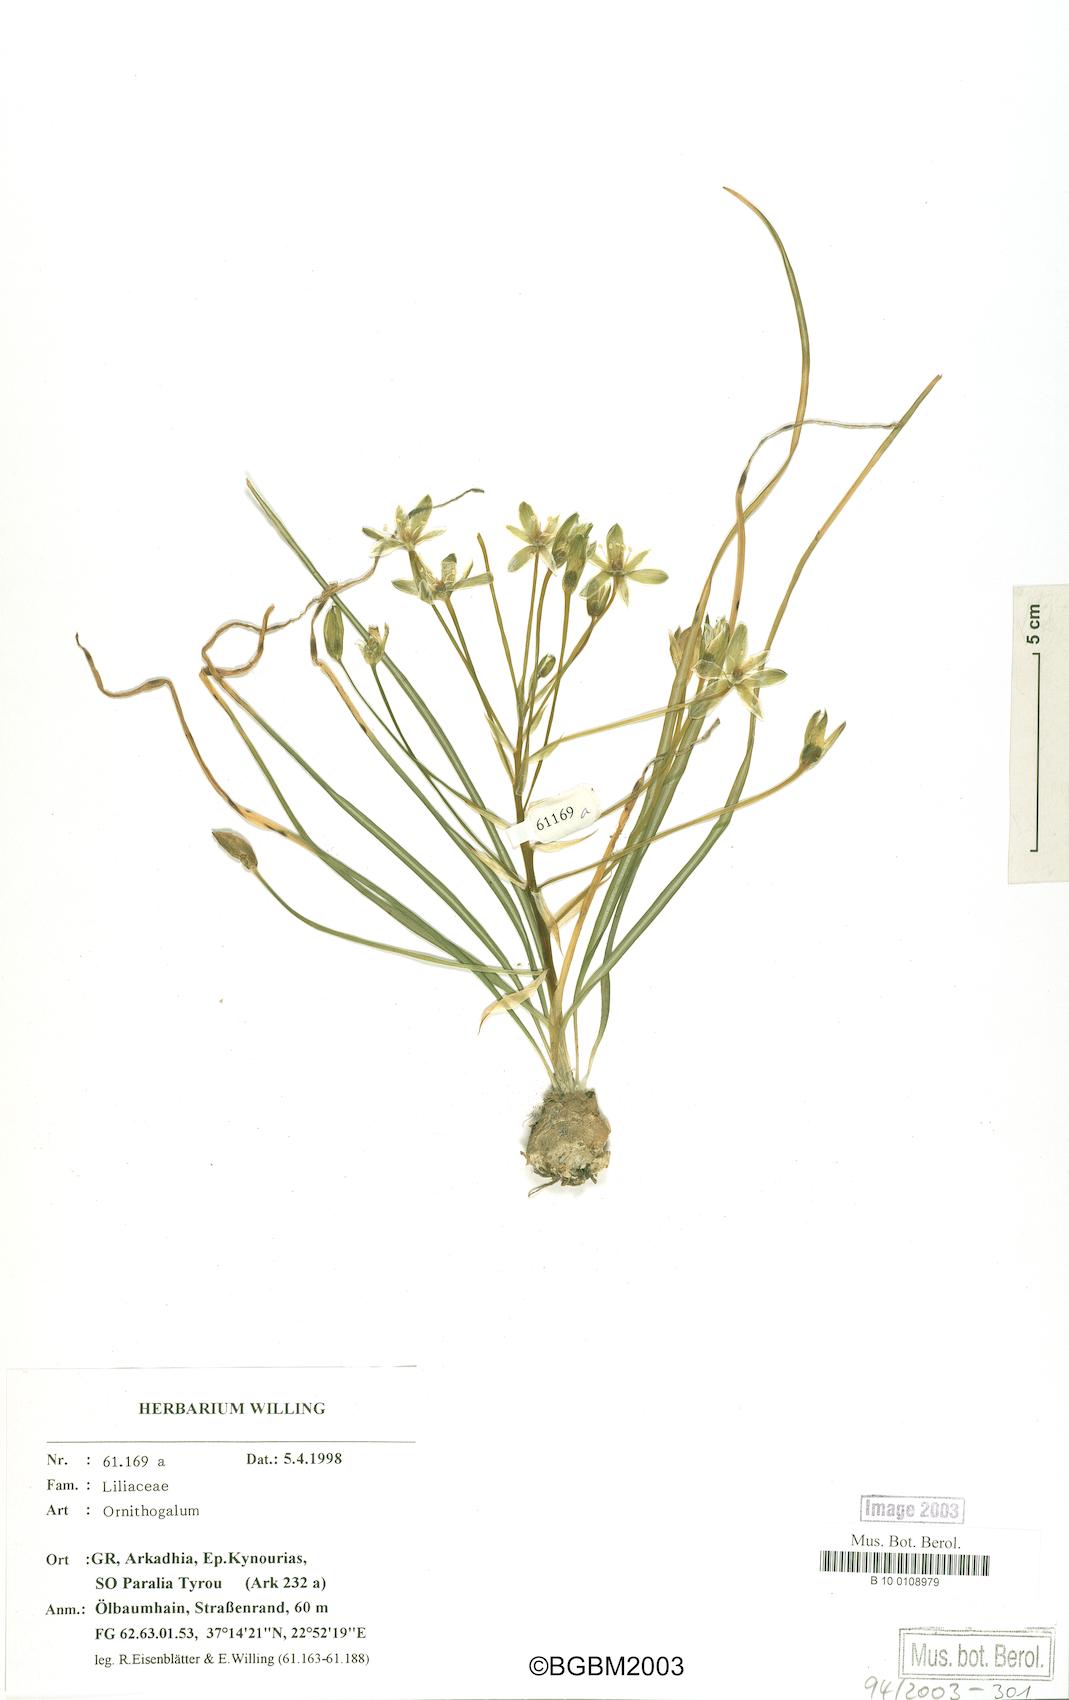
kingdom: Plantae
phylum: Tracheophyta
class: Liliopsida
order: Asparagales
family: Asparagaceae
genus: Ornithogalum
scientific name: Ornithogalum
